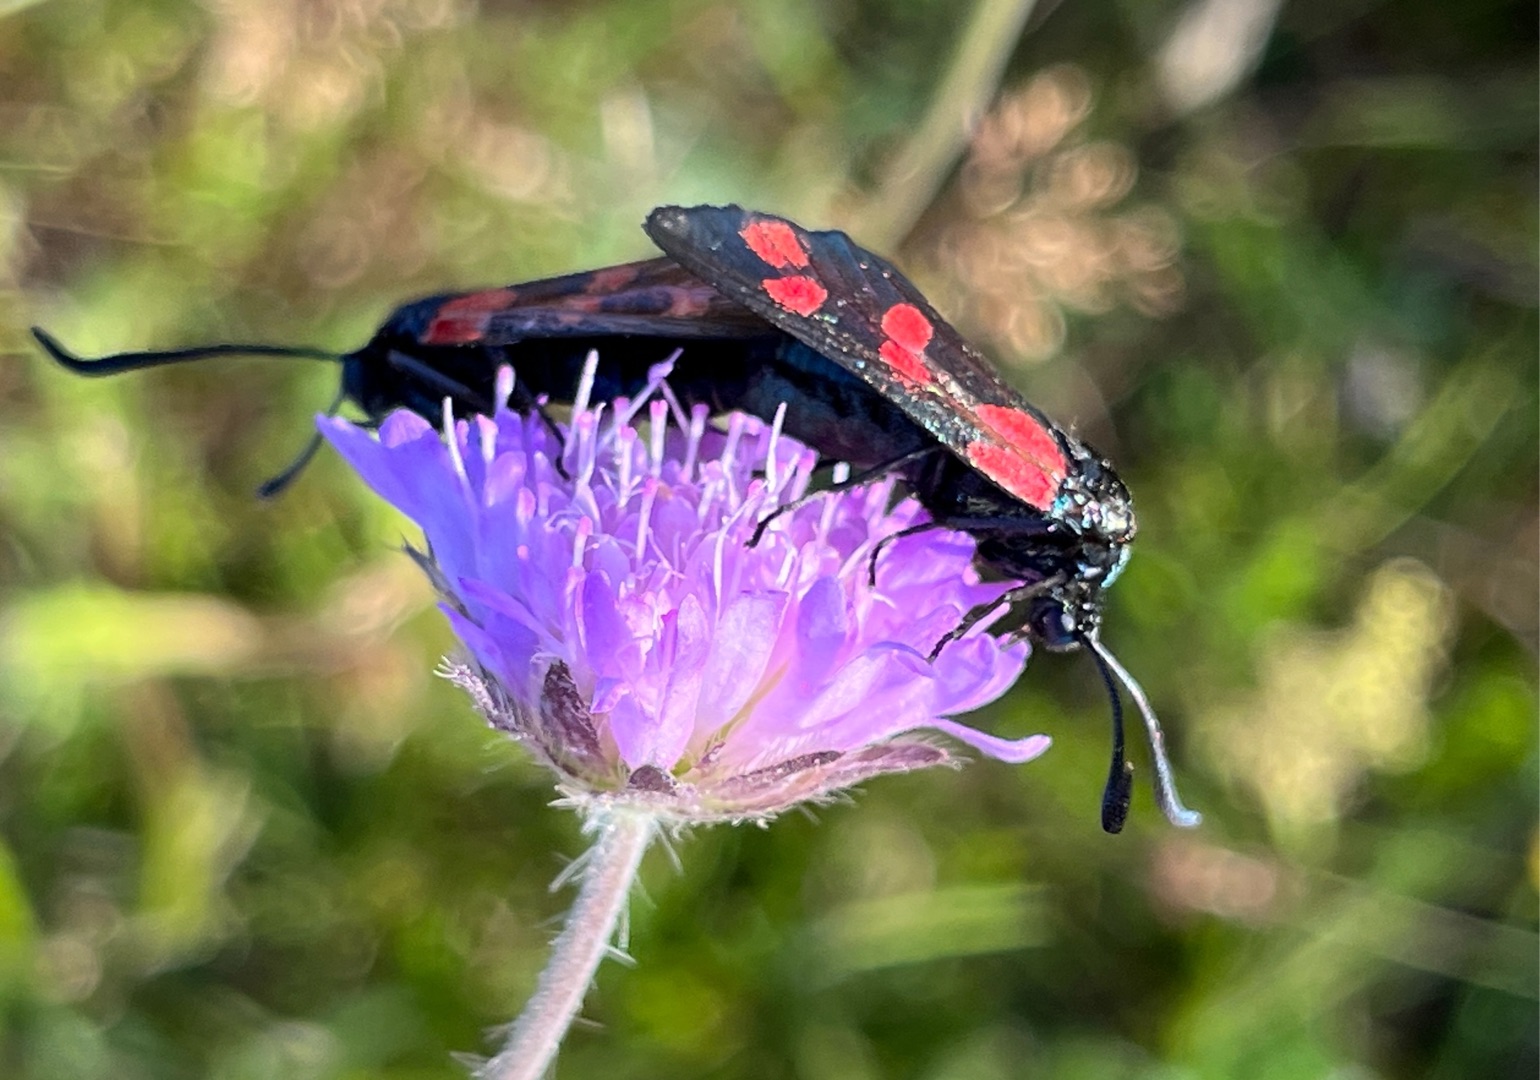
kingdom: Animalia
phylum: Arthropoda
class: Insecta
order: Lepidoptera
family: Zygaenidae
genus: Zygaena
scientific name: Zygaena filipendulae
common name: Seksplettet køllesværmer
